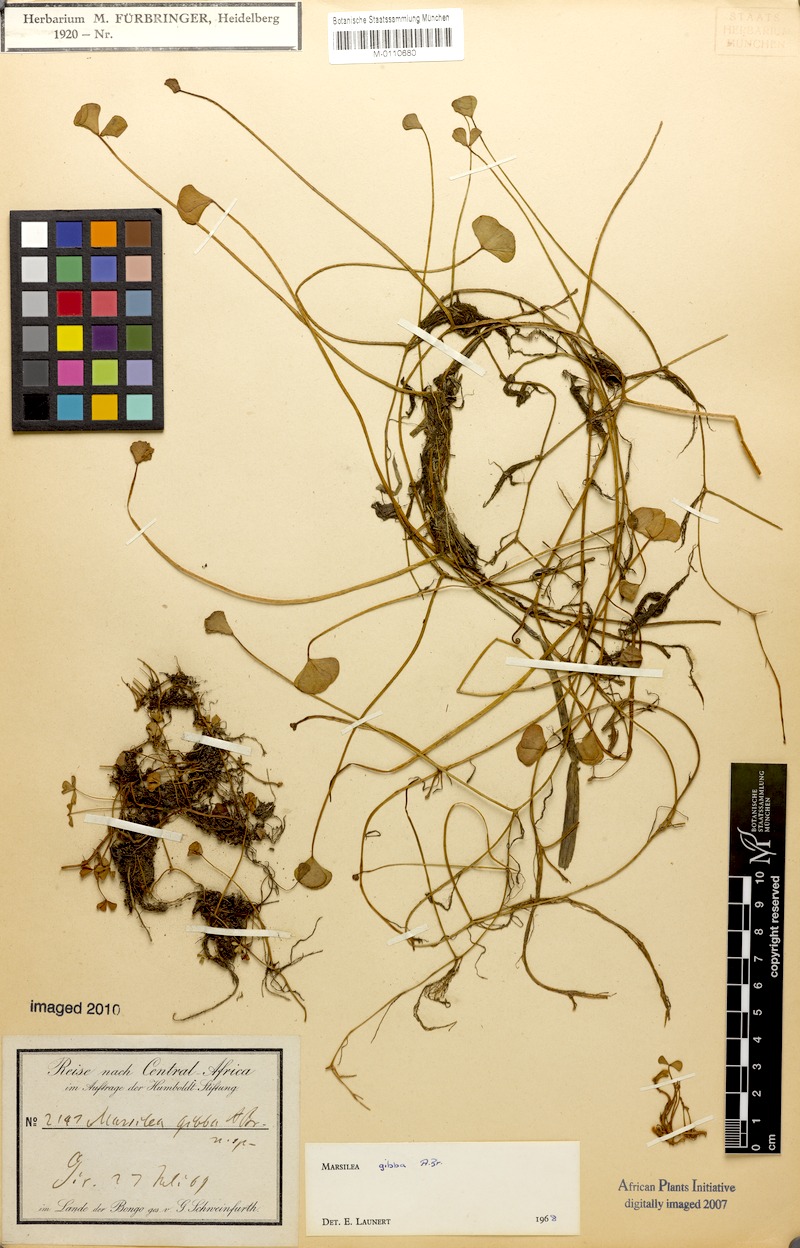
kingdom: Plantae
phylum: Tracheophyta
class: Polypodiopsida
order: Salviniales
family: Marsileaceae
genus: Marsilea
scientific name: Marsilea gibba
